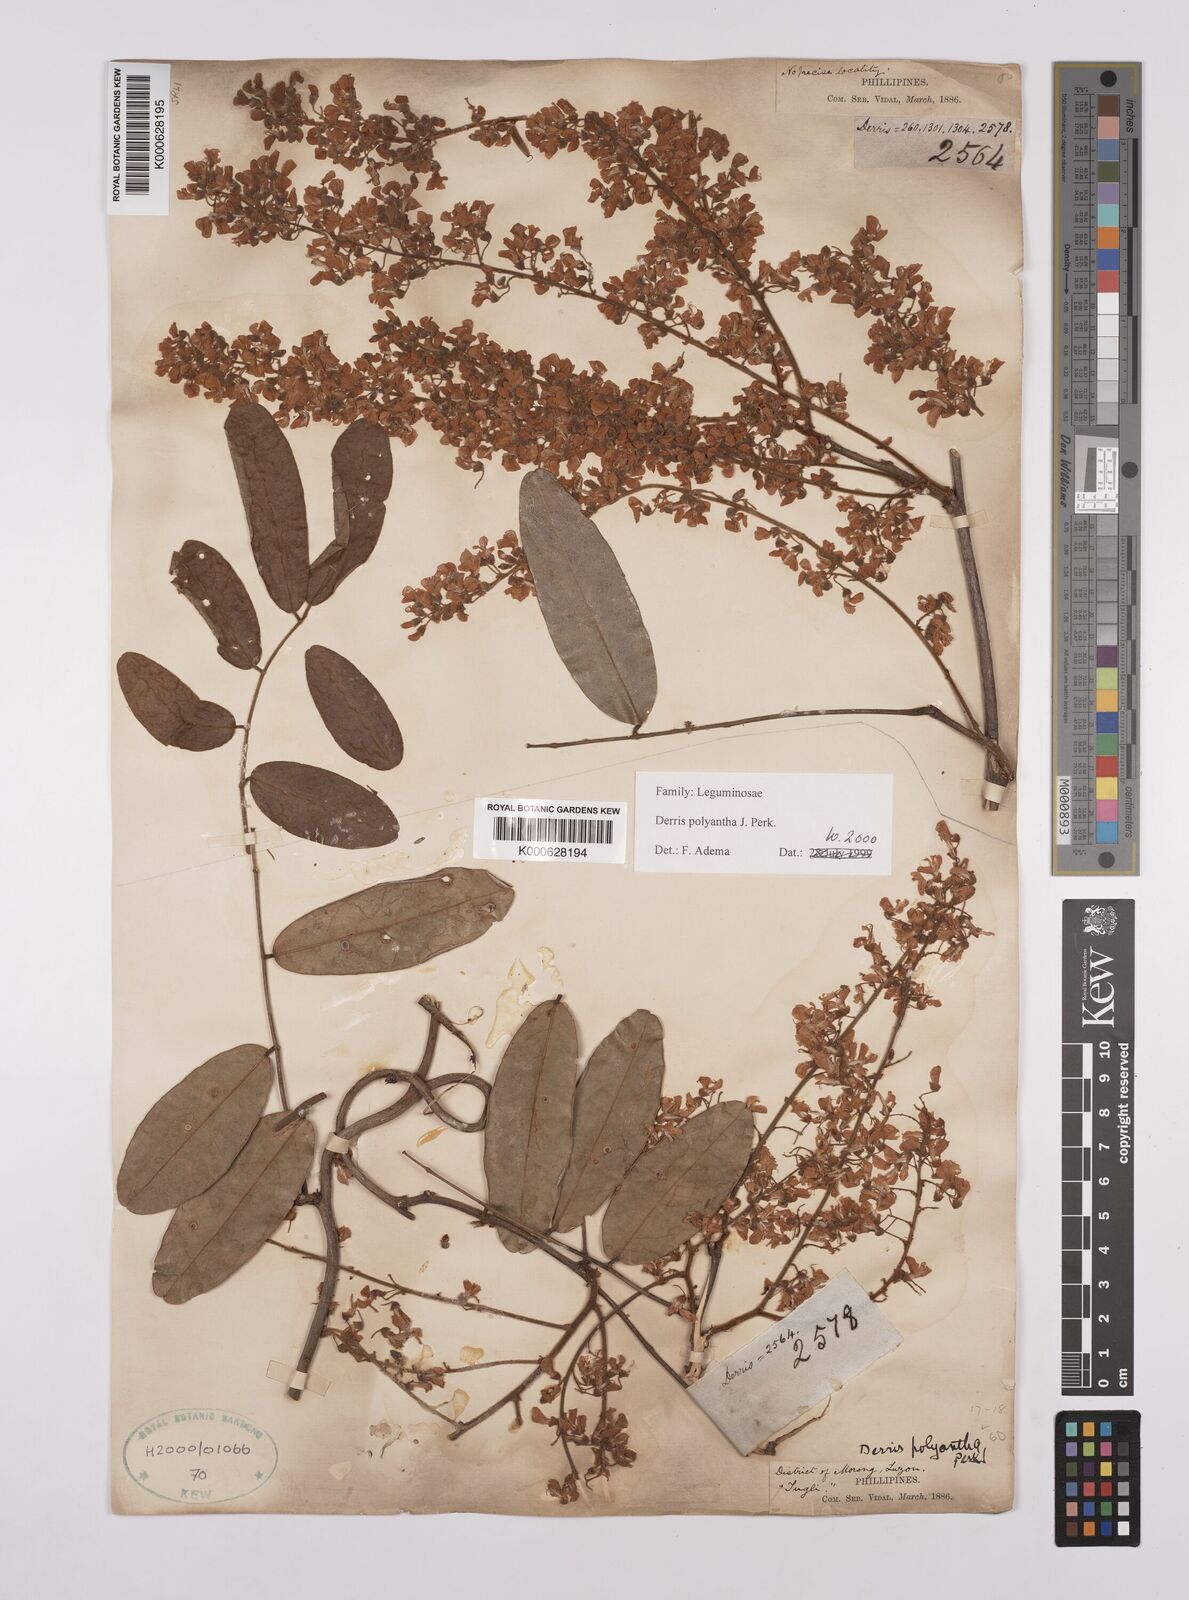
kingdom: Plantae
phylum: Tracheophyta
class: Magnoliopsida
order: Fabales
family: Fabaceae
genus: Derris
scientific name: Derris polyantha
